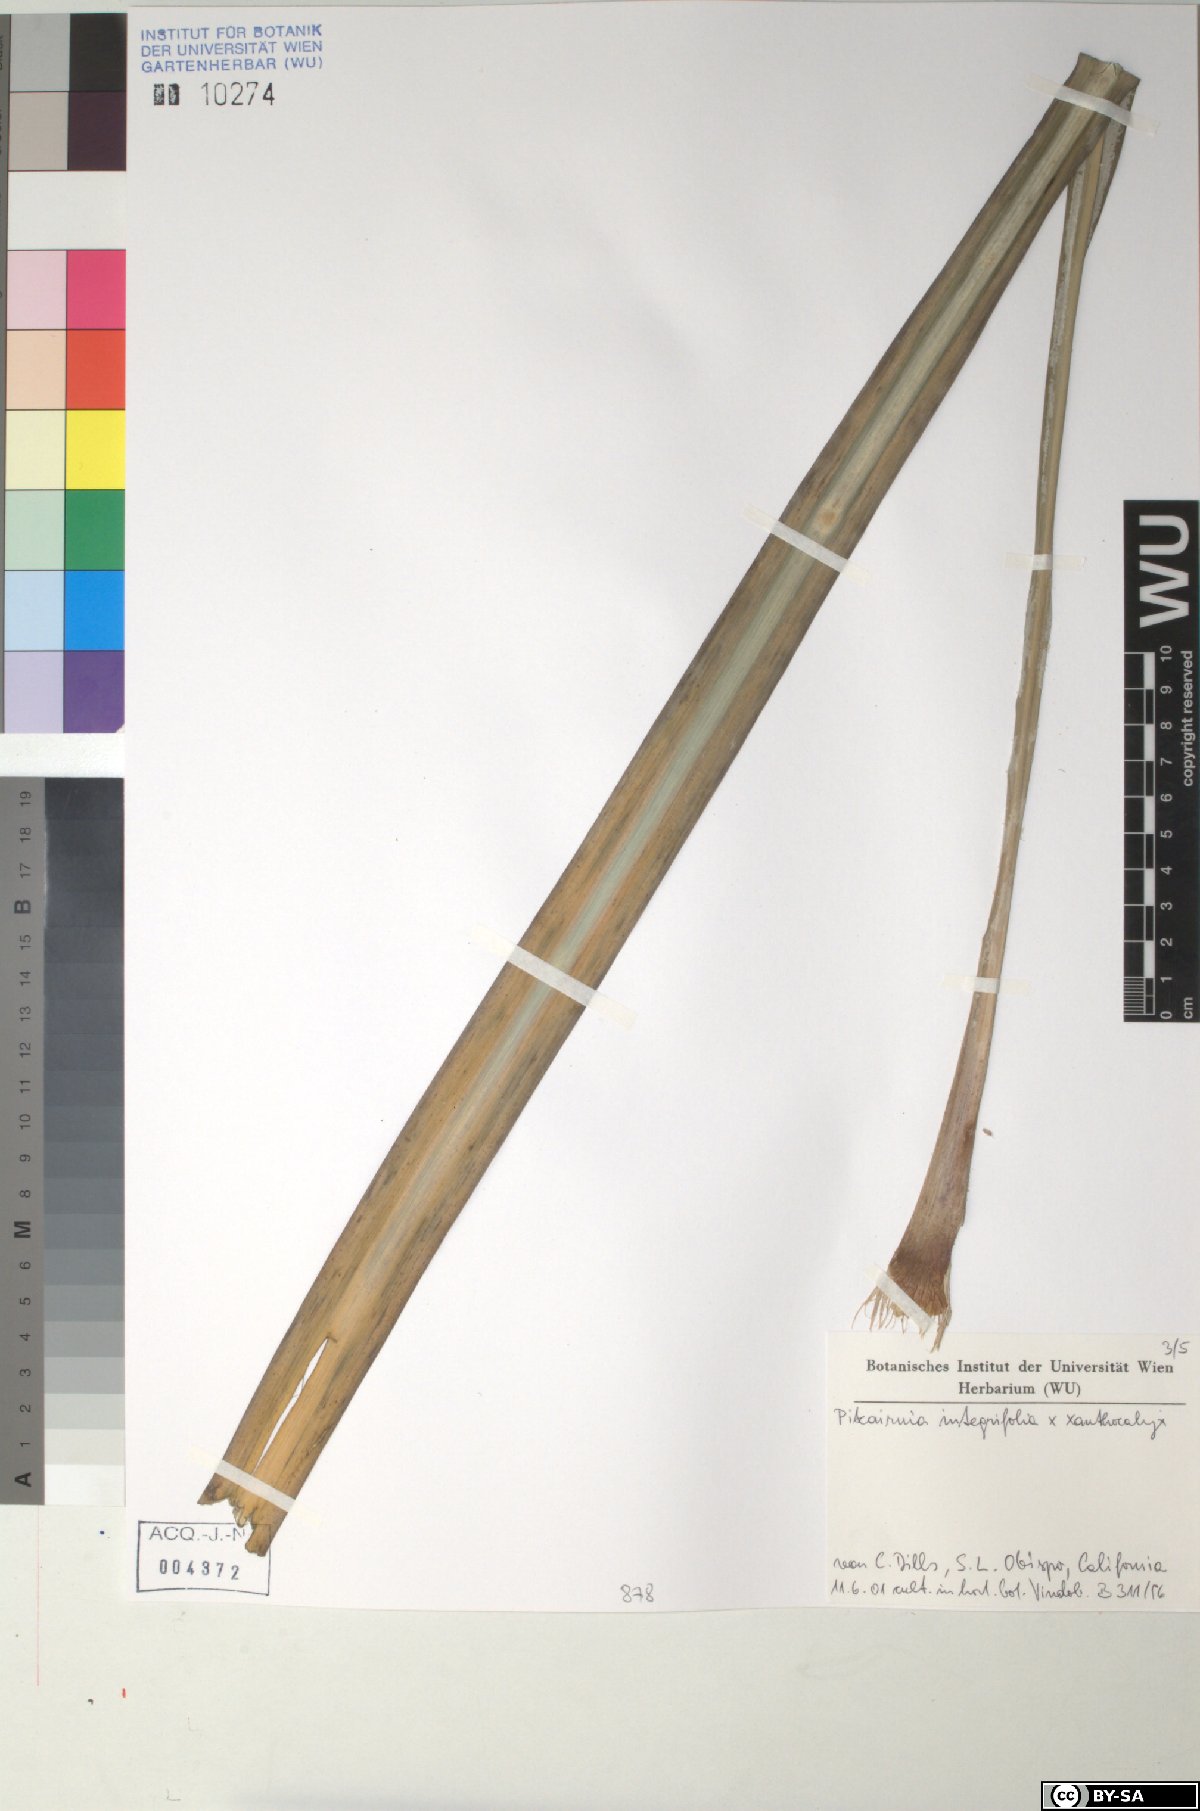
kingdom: Plantae
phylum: Tracheophyta
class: Liliopsida
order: Poales
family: Bromeliaceae
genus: Pitcairnia
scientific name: Pitcairnia integrifolia
